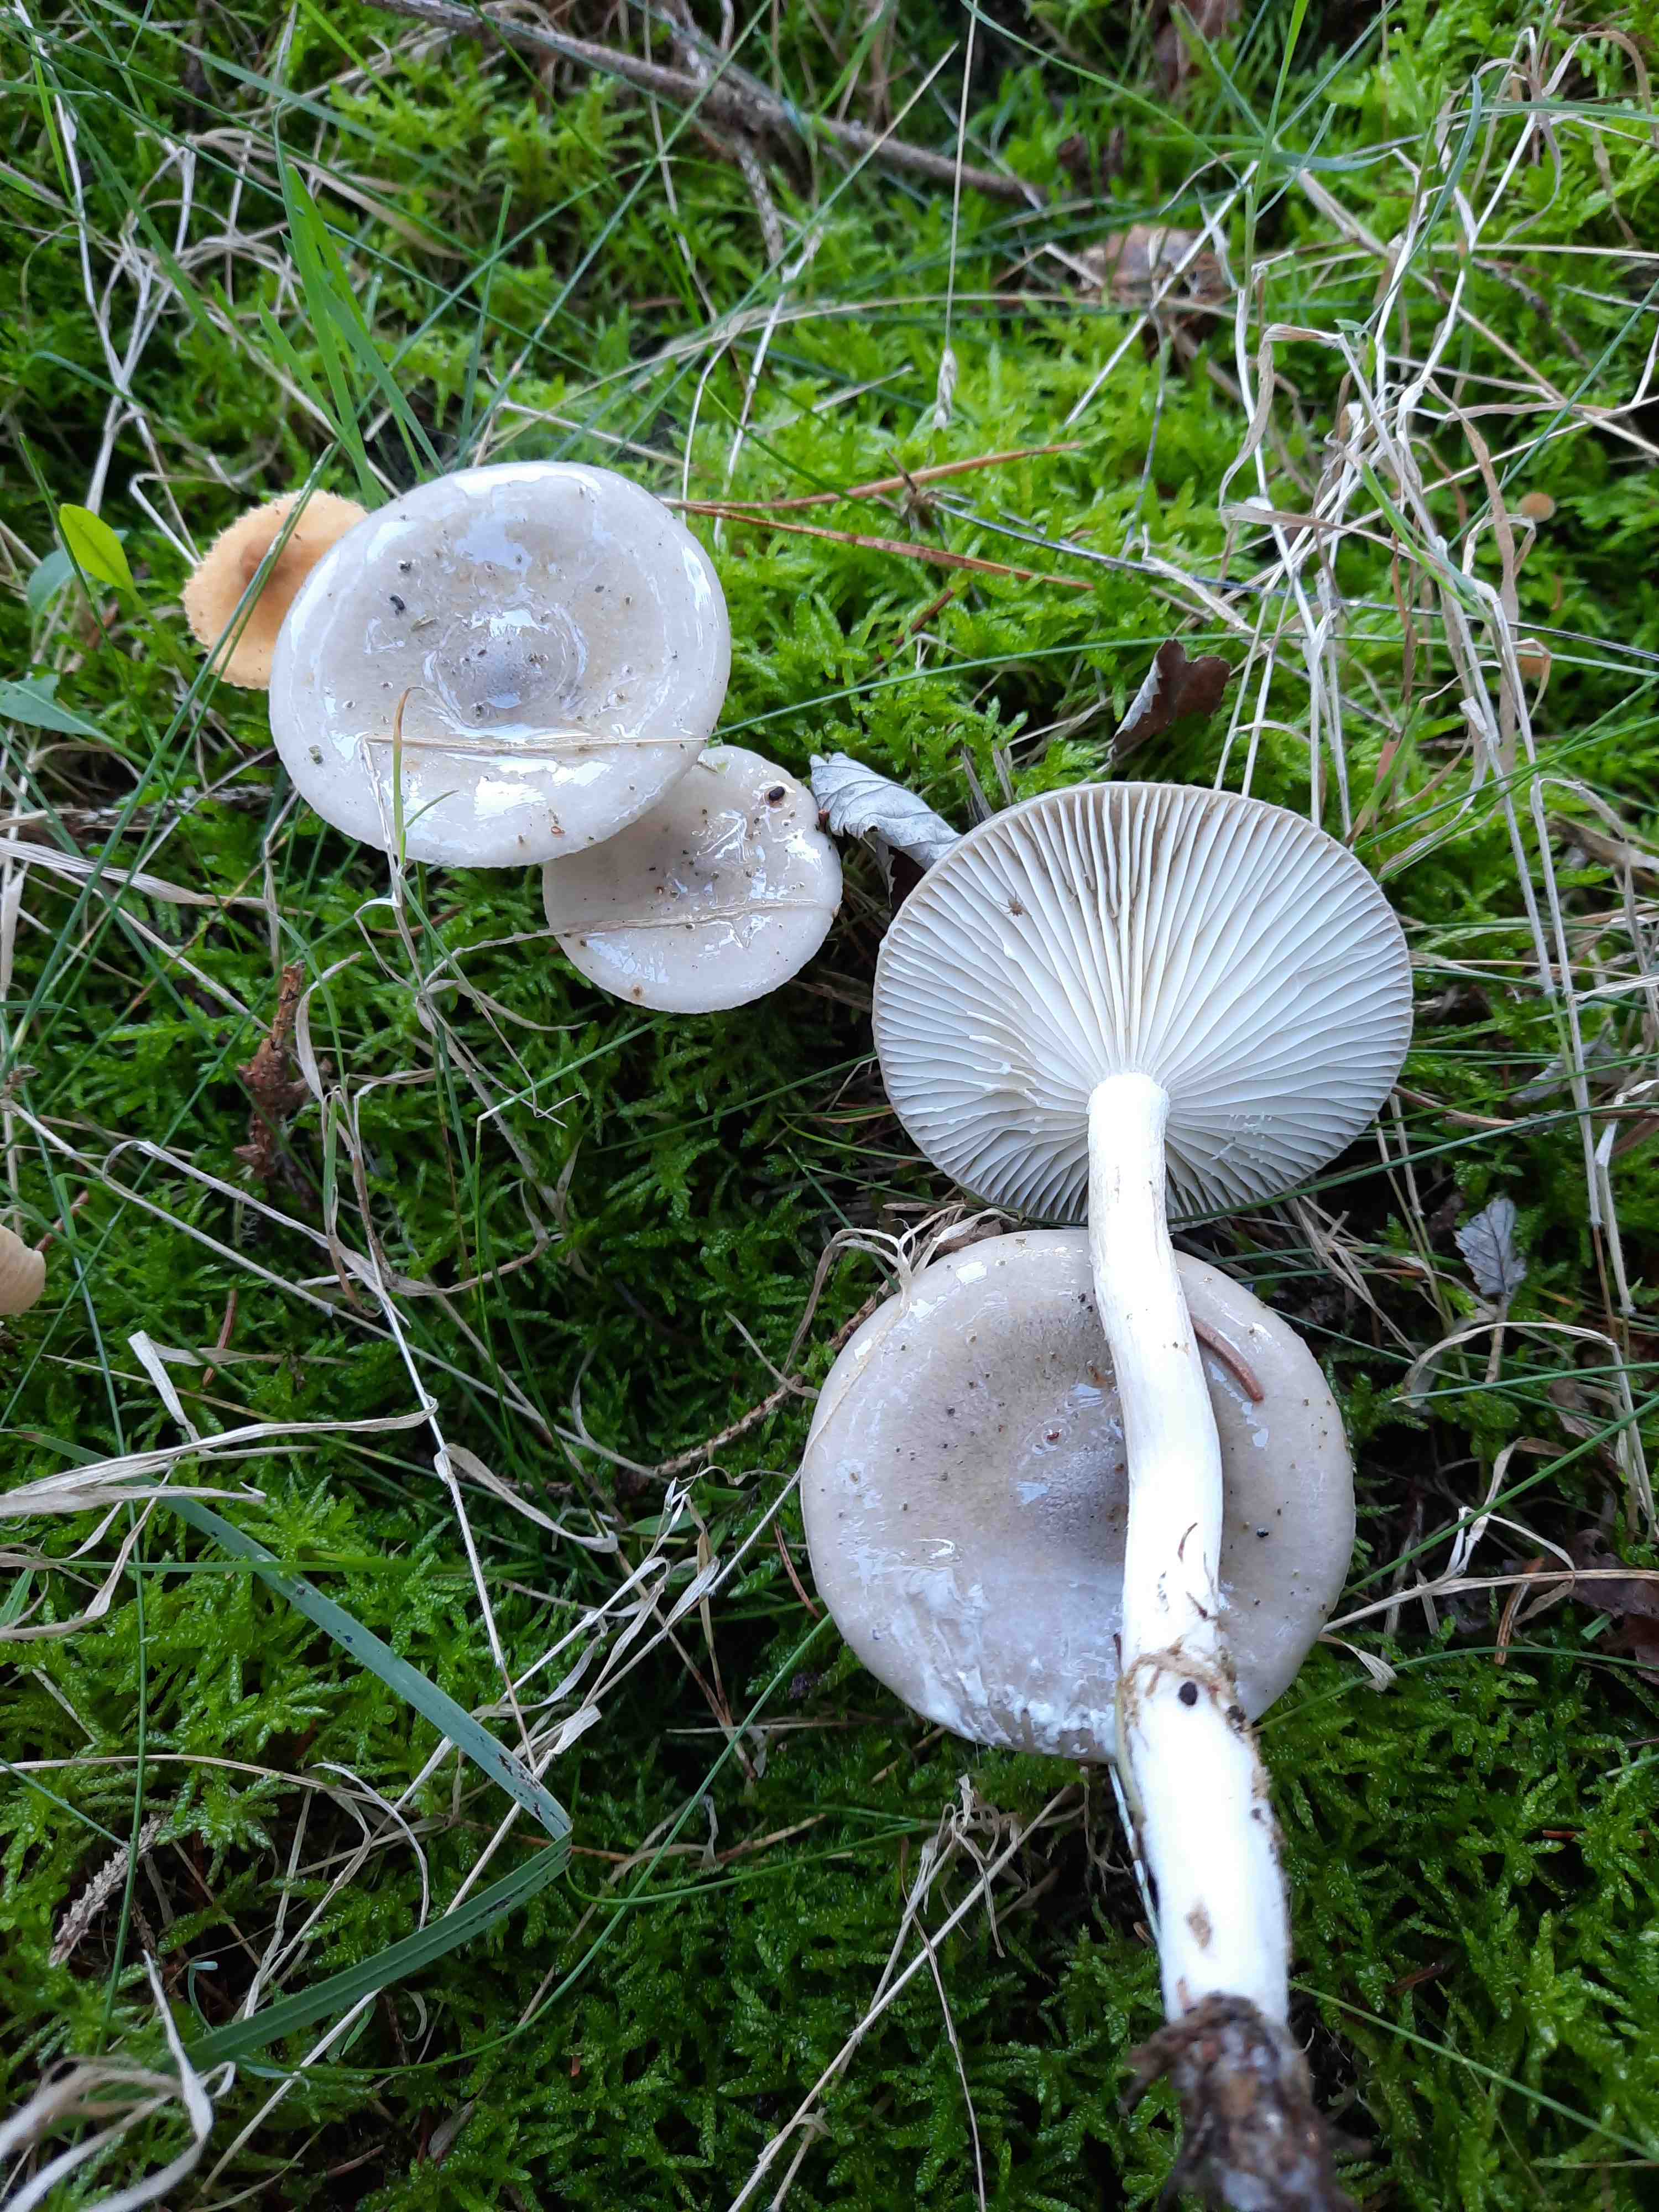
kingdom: Fungi
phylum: Basidiomycota
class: Agaricomycetes
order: Agaricales
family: Hygrophoraceae
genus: Hygrophorus
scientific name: Hygrophorus agathosmus
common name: vellugtende sneglehat
